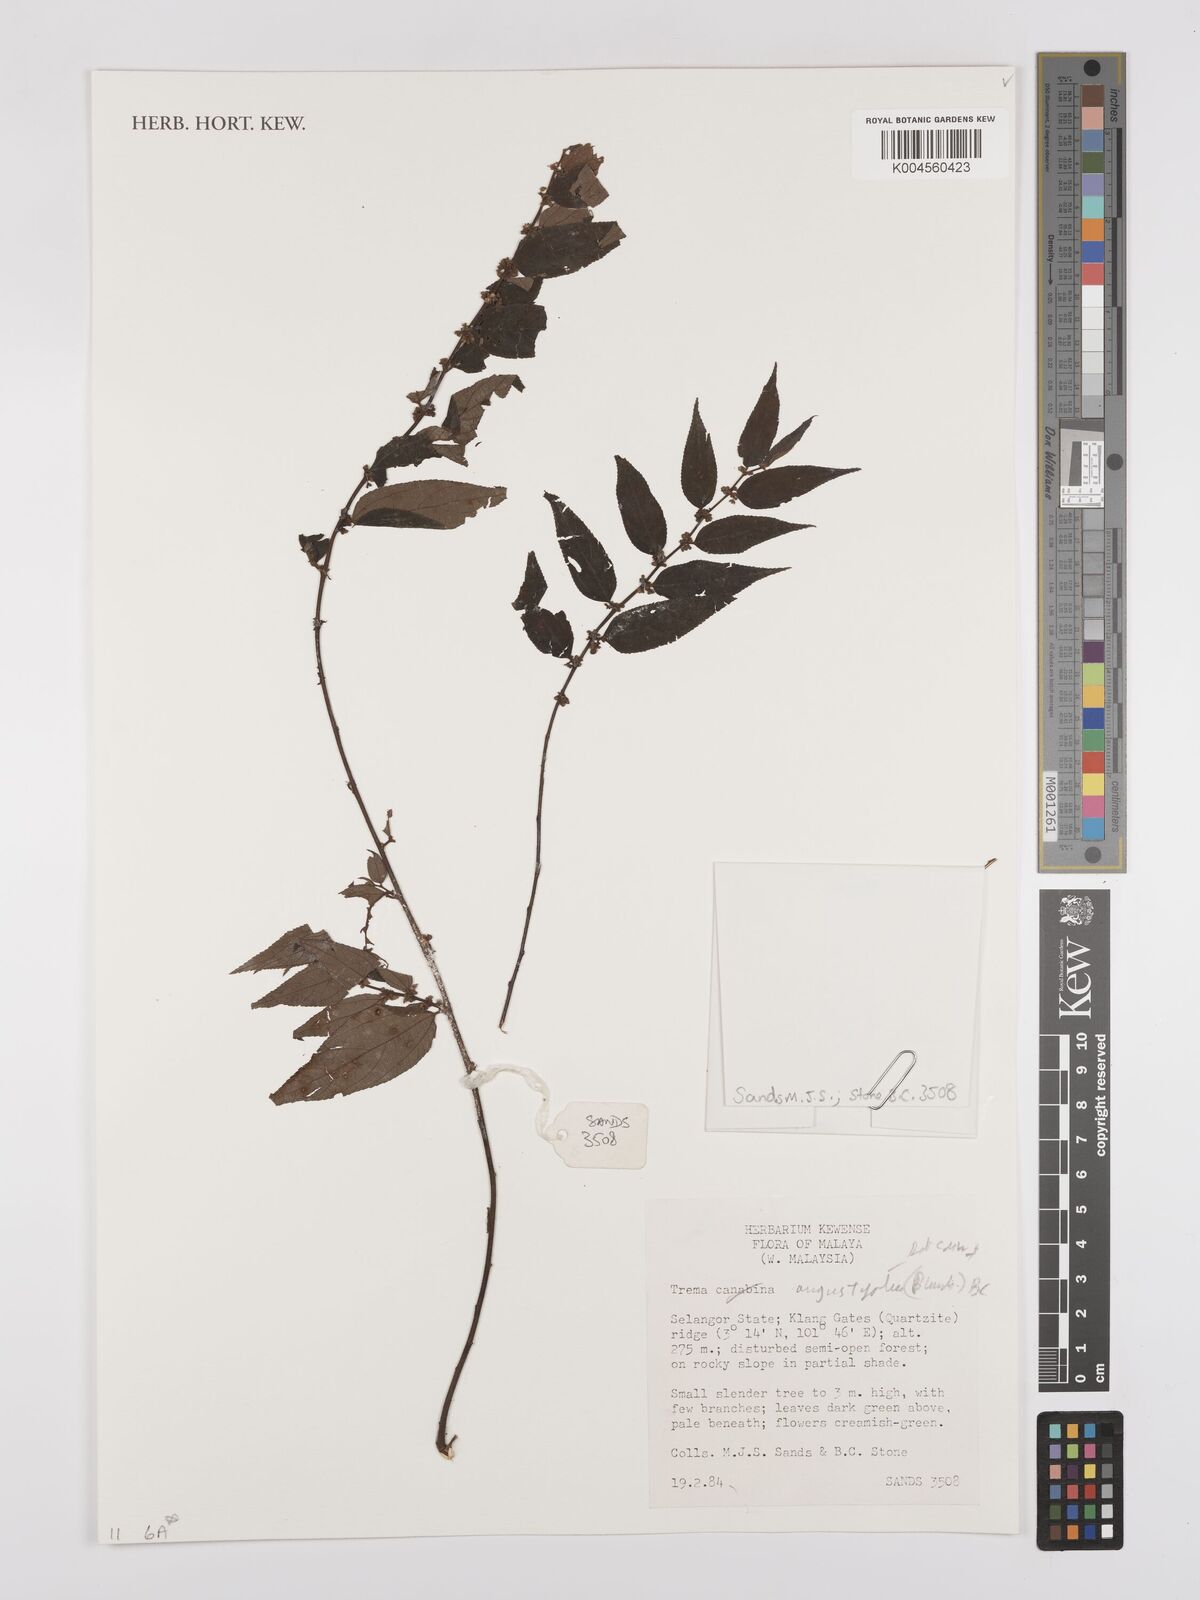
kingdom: Plantae
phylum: Tracheophyta
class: Magnoliopsida
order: Rosales
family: Cannabaceae
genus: Trema
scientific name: Trema angustifolium
